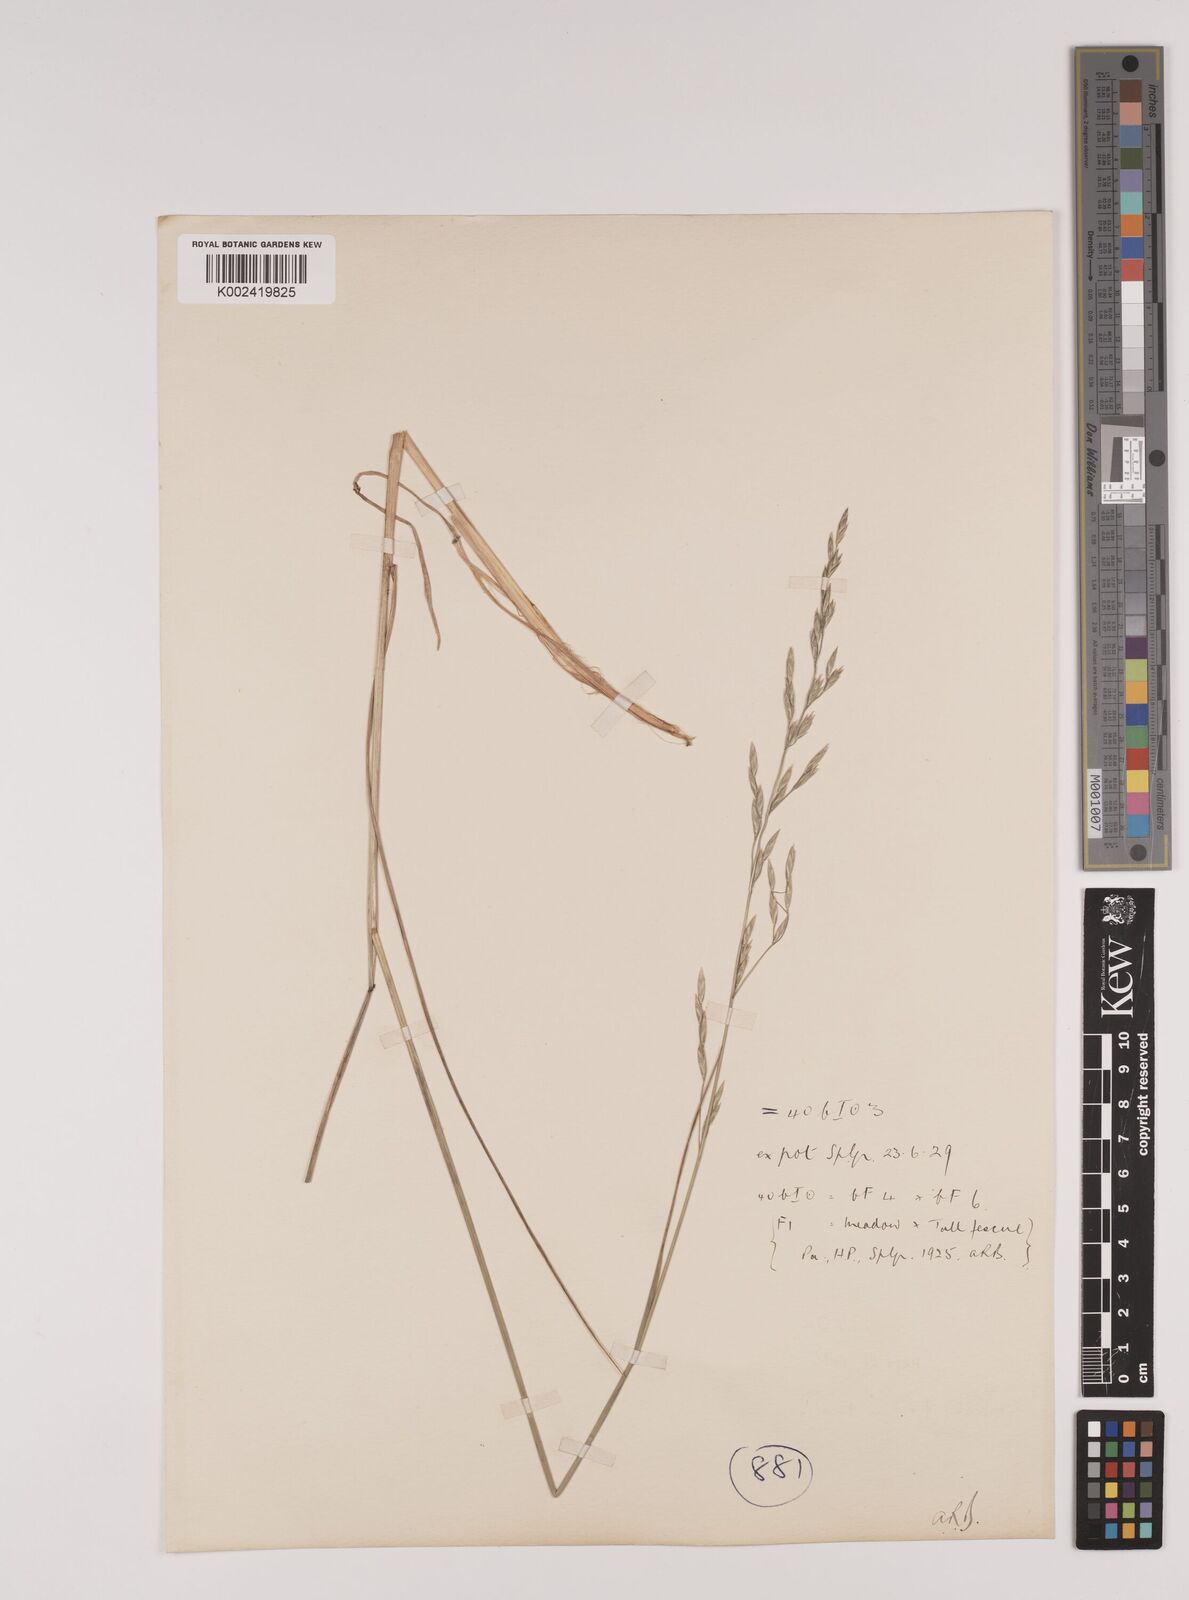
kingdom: Plantae
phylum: Tracheophyta
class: Liliopsida
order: Poales
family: Poaceae
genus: Festuca
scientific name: Festuca rubra
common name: Red fescue
